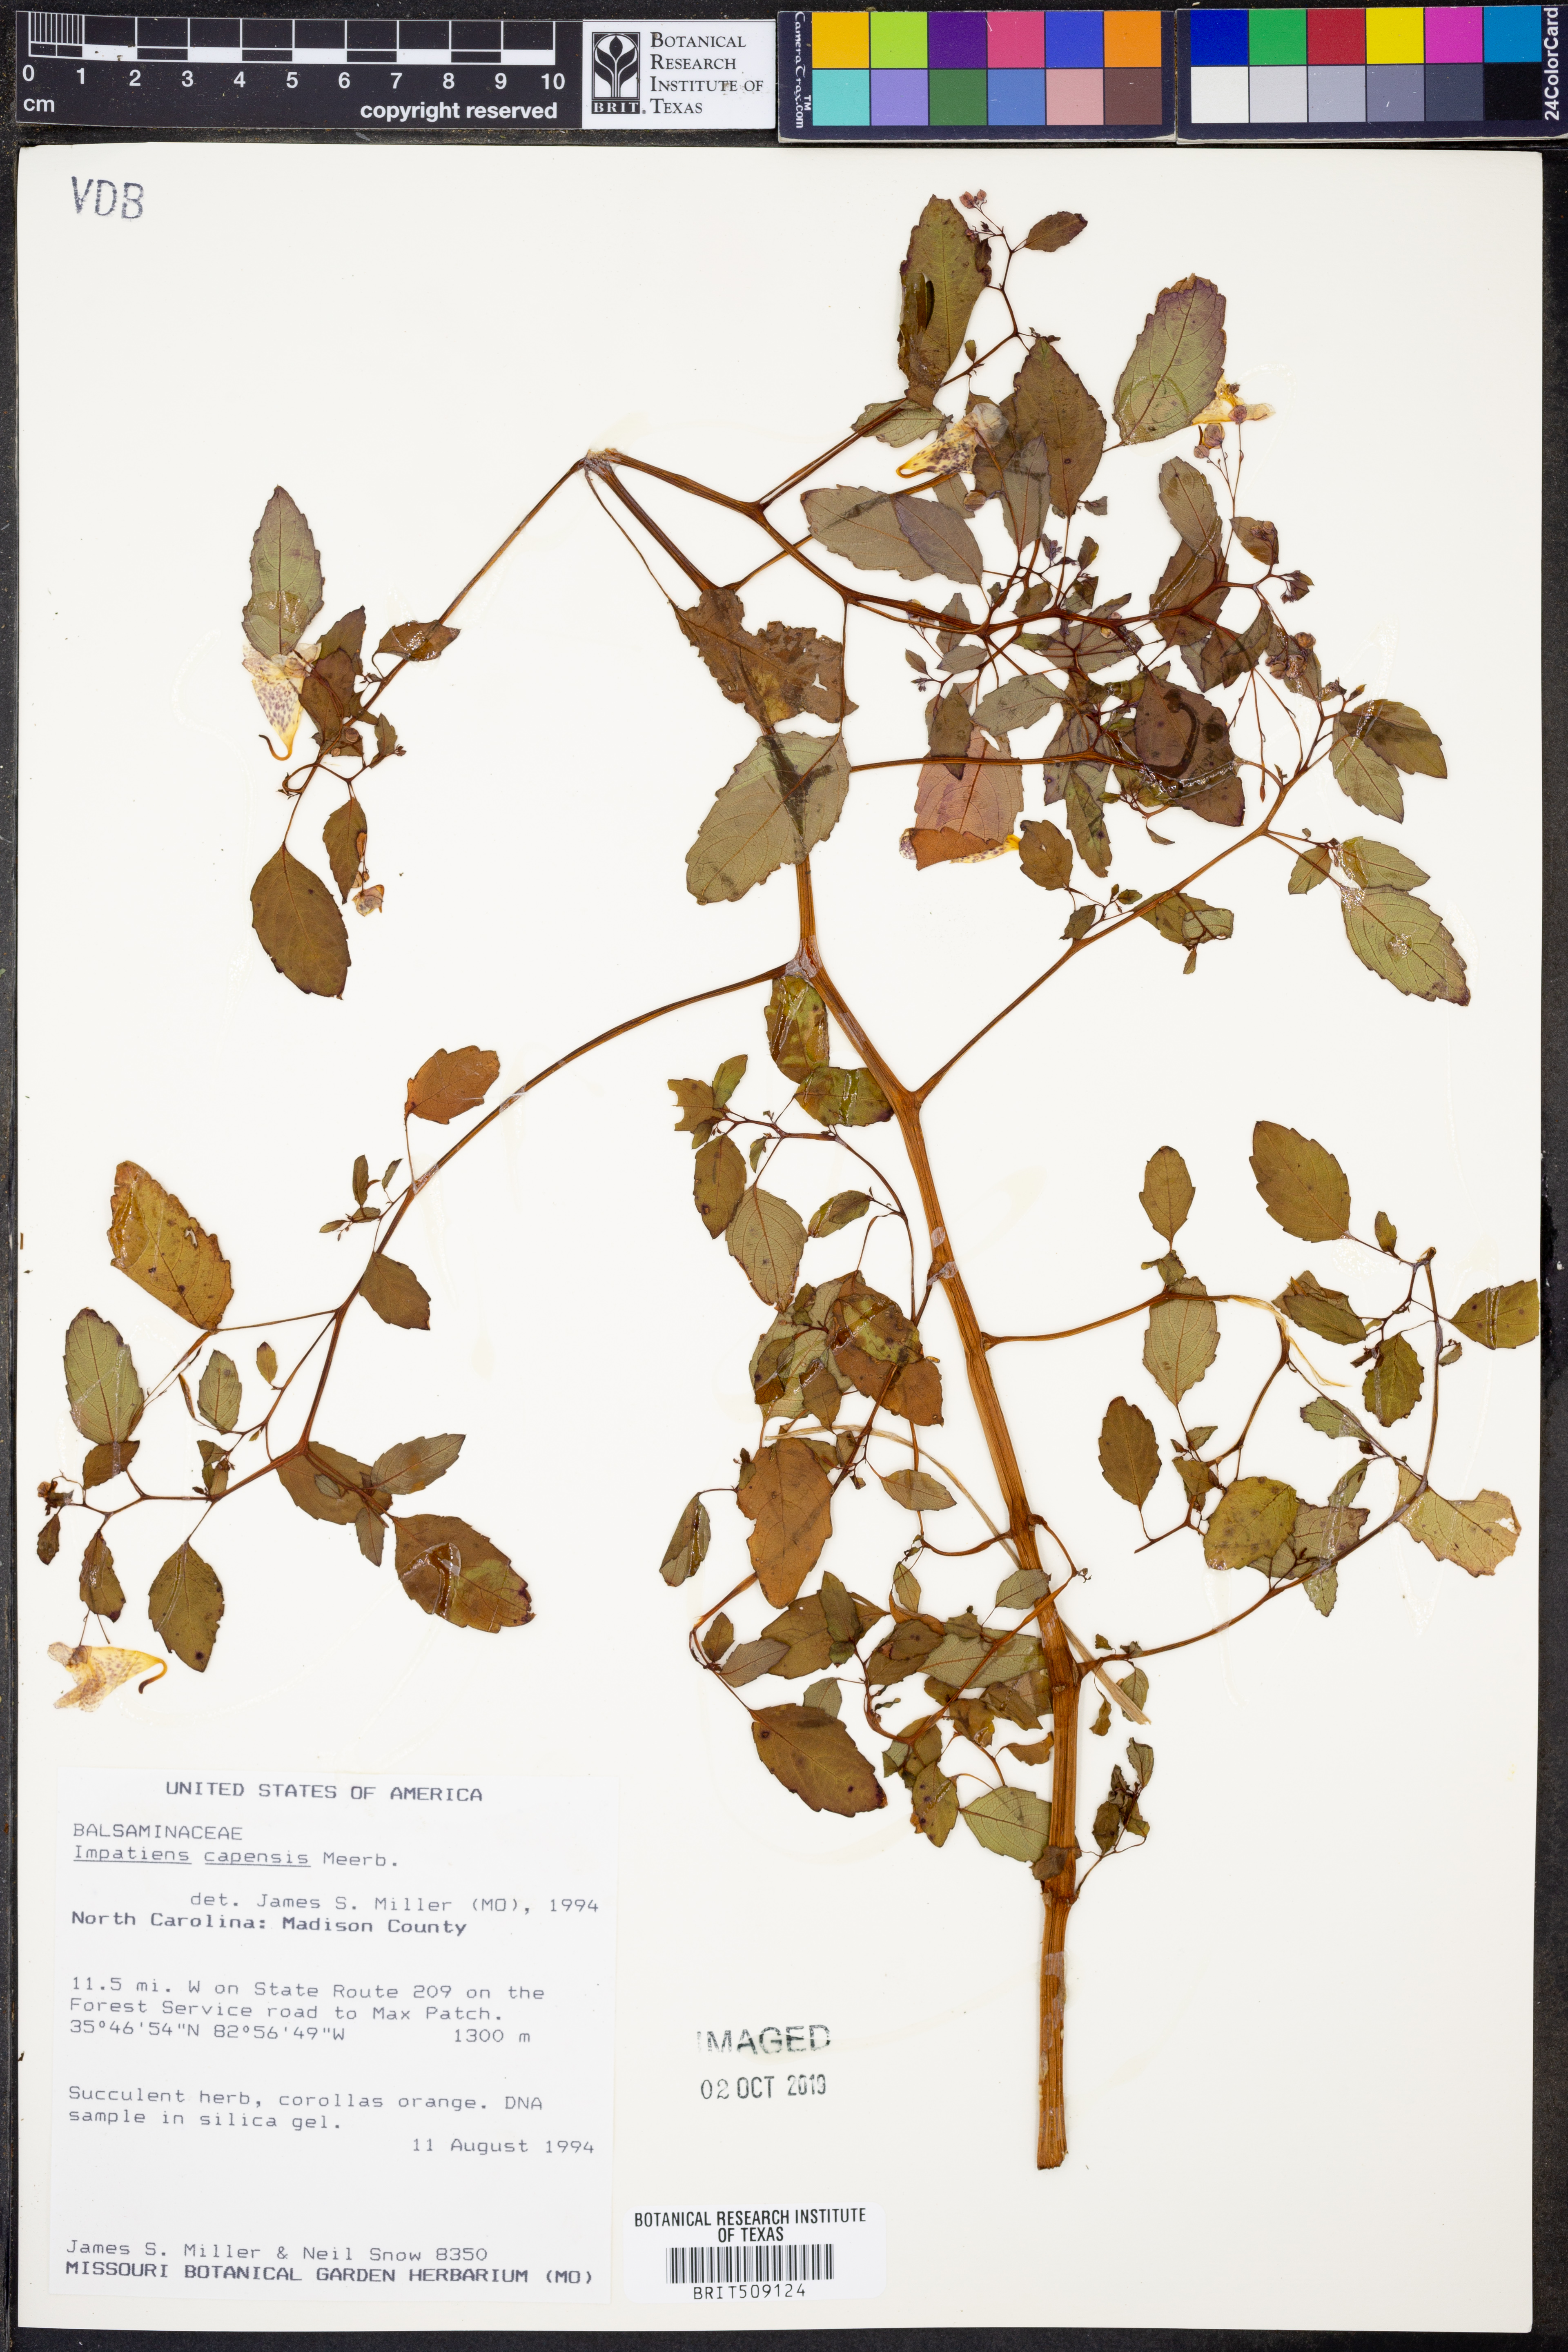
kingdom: Plantae
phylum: Tracheophyta
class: Magnoliopsida
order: Ericales
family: Balsaminaceae
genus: Impatiens
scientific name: Impatiens capensis
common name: Orange balsam
